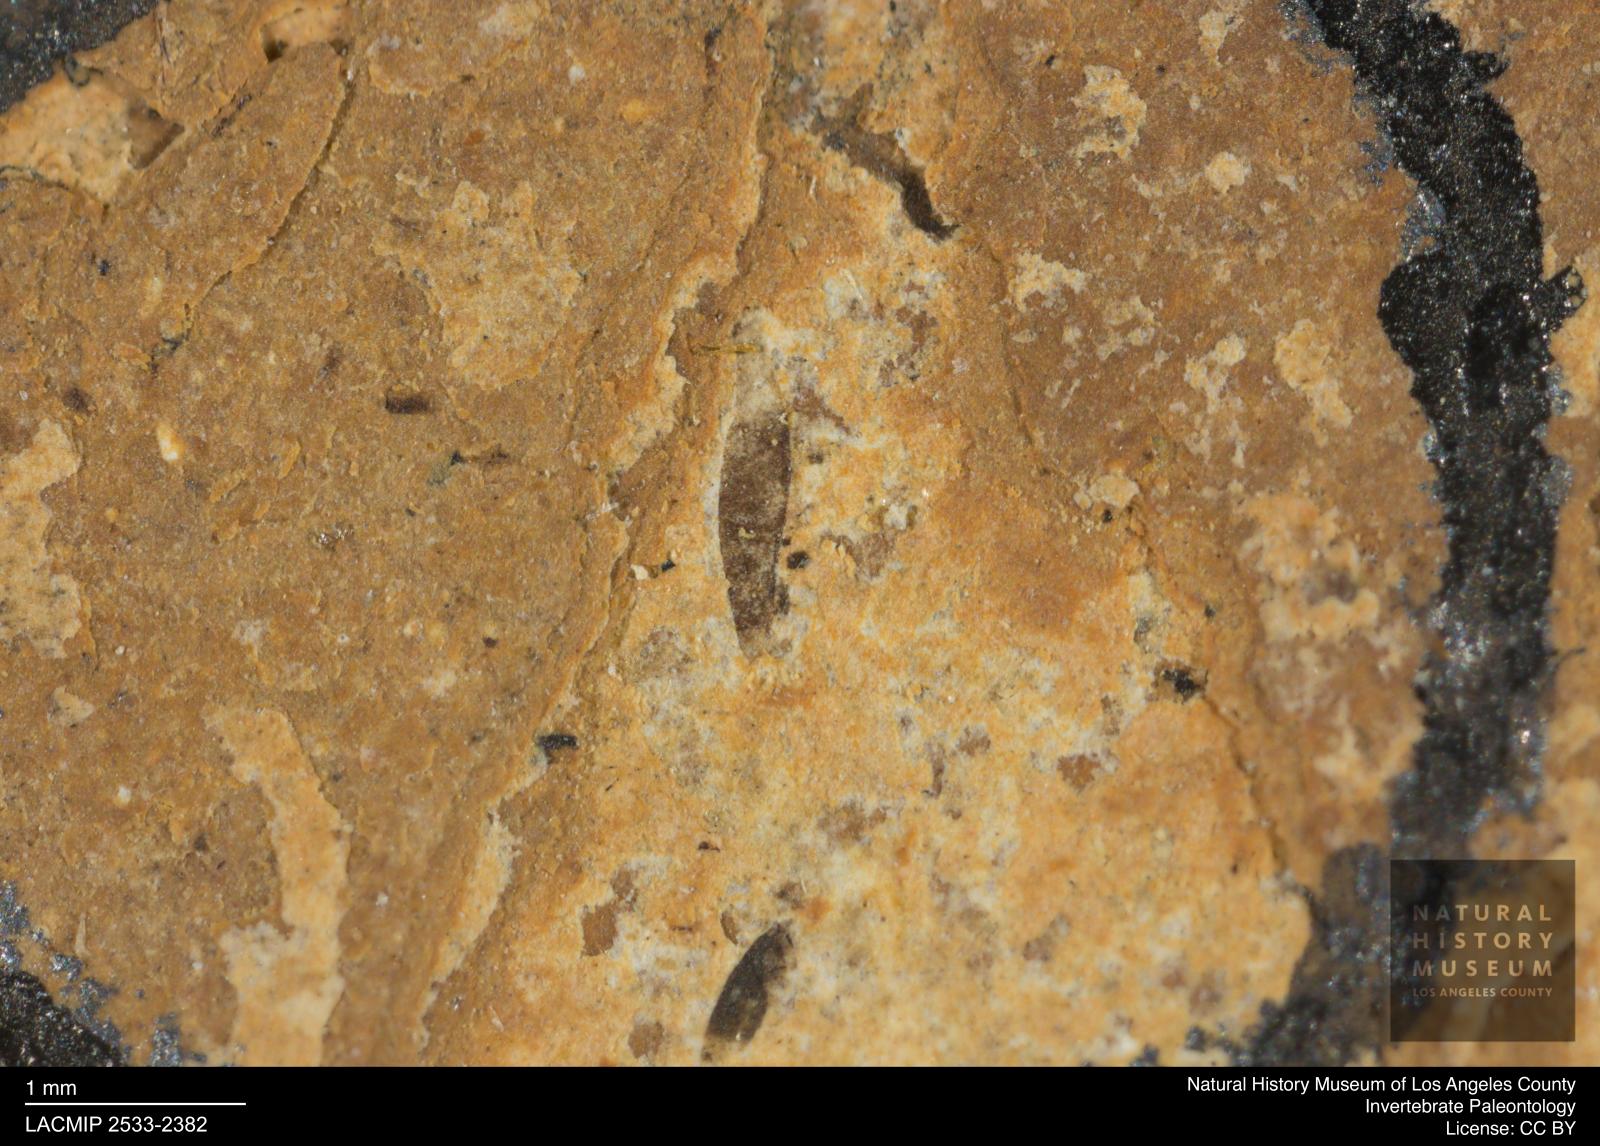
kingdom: Animalia
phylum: Arthropoda
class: Insecta
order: Thysanoptera
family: Thripidae
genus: Thrips
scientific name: Thrips
